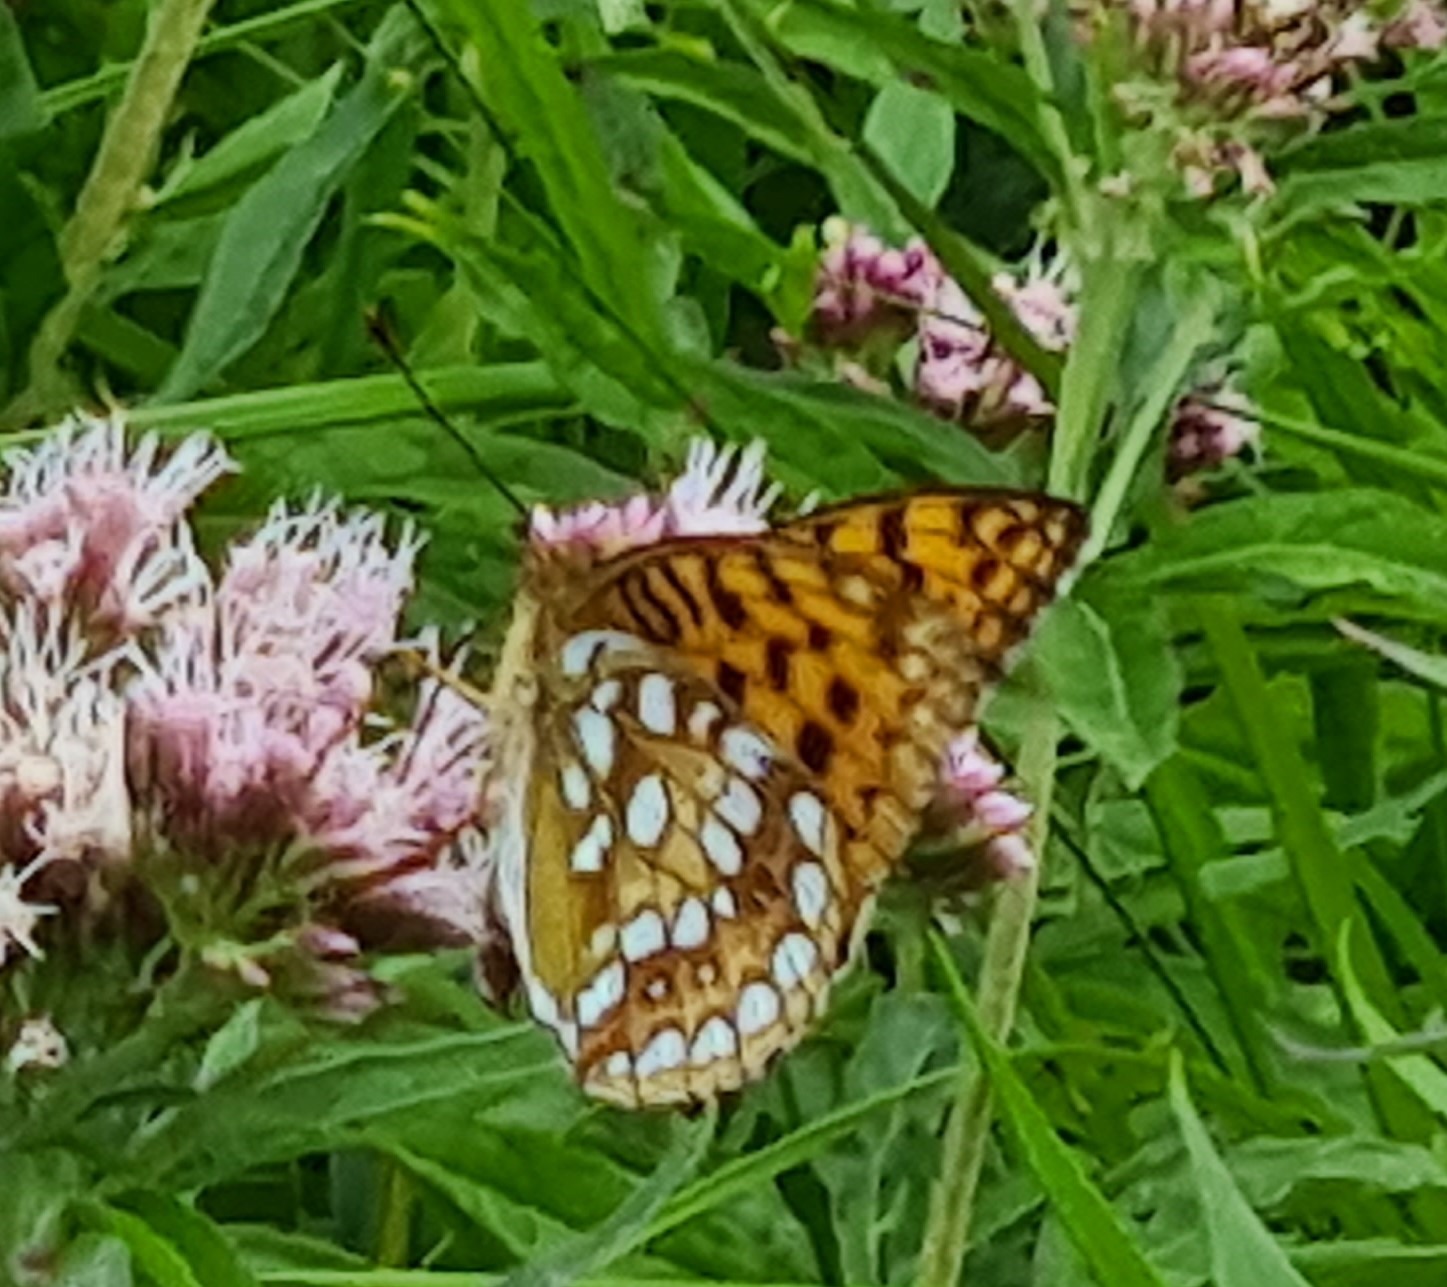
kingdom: Animalia
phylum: Arthropoda
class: Insecta
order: Lepidoptera
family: Nymphalidae
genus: Fabriciana
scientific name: Fabriciana adippe
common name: Skovperlemorsommerfugl
